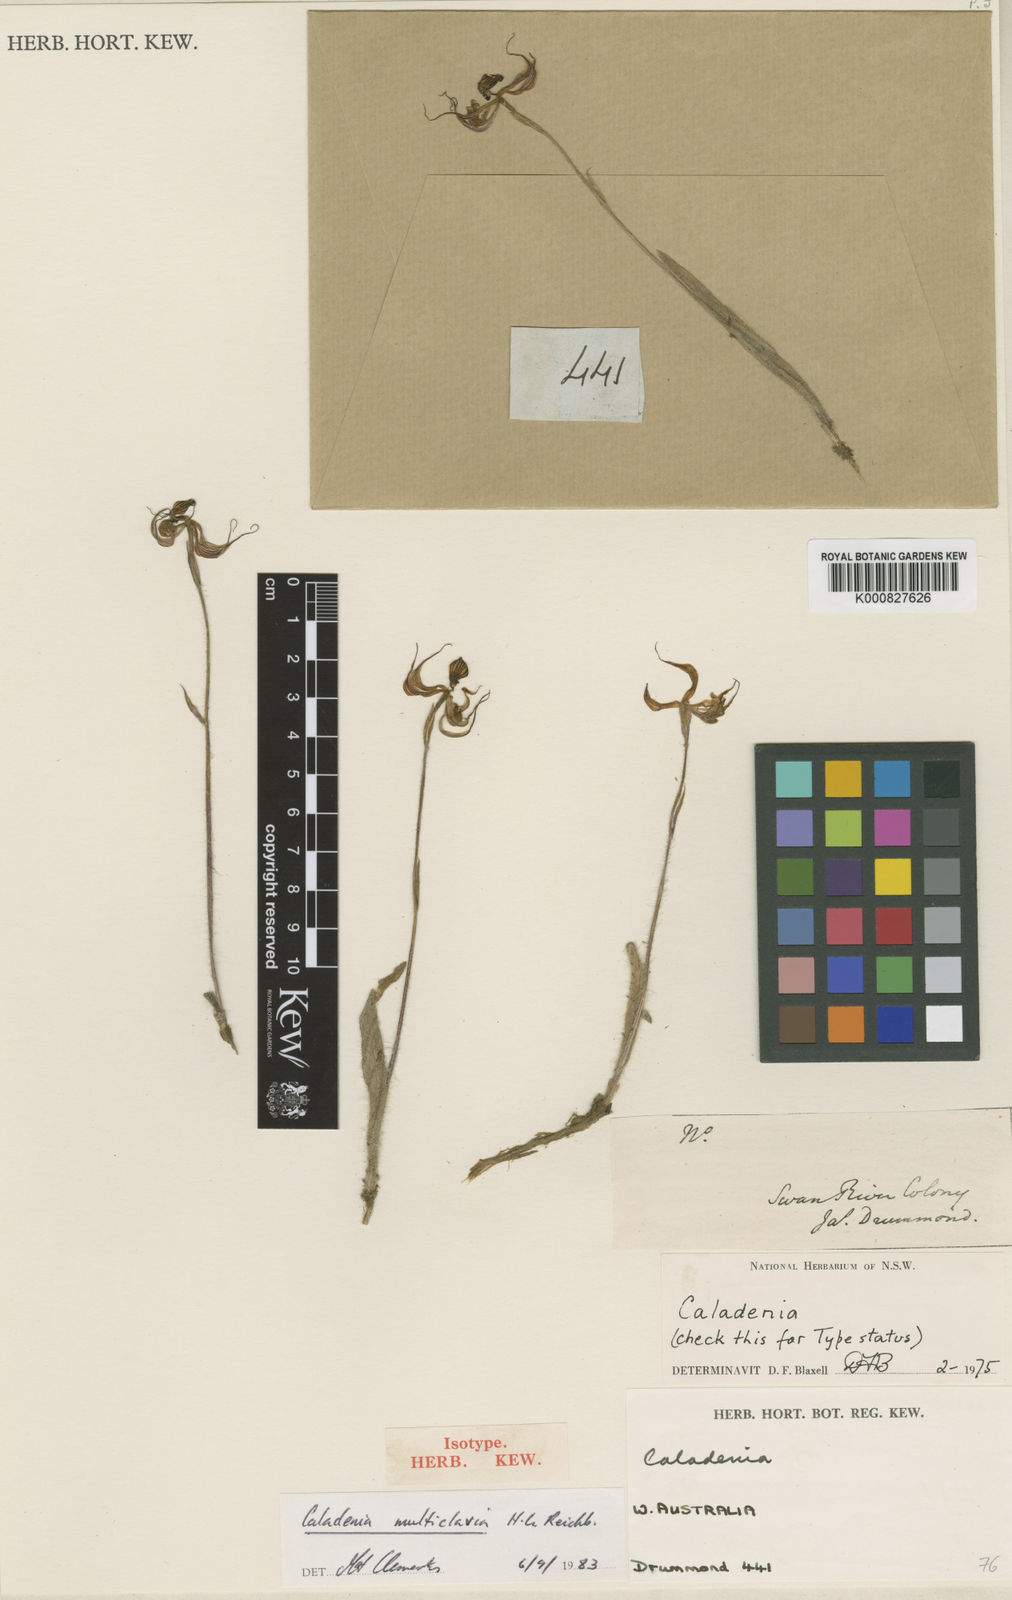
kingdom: Plantae
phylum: Tracheophyta
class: Liliopsida
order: Asparagales
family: Orchidaceae
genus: Caladenia
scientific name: Caladenia multiclavia
